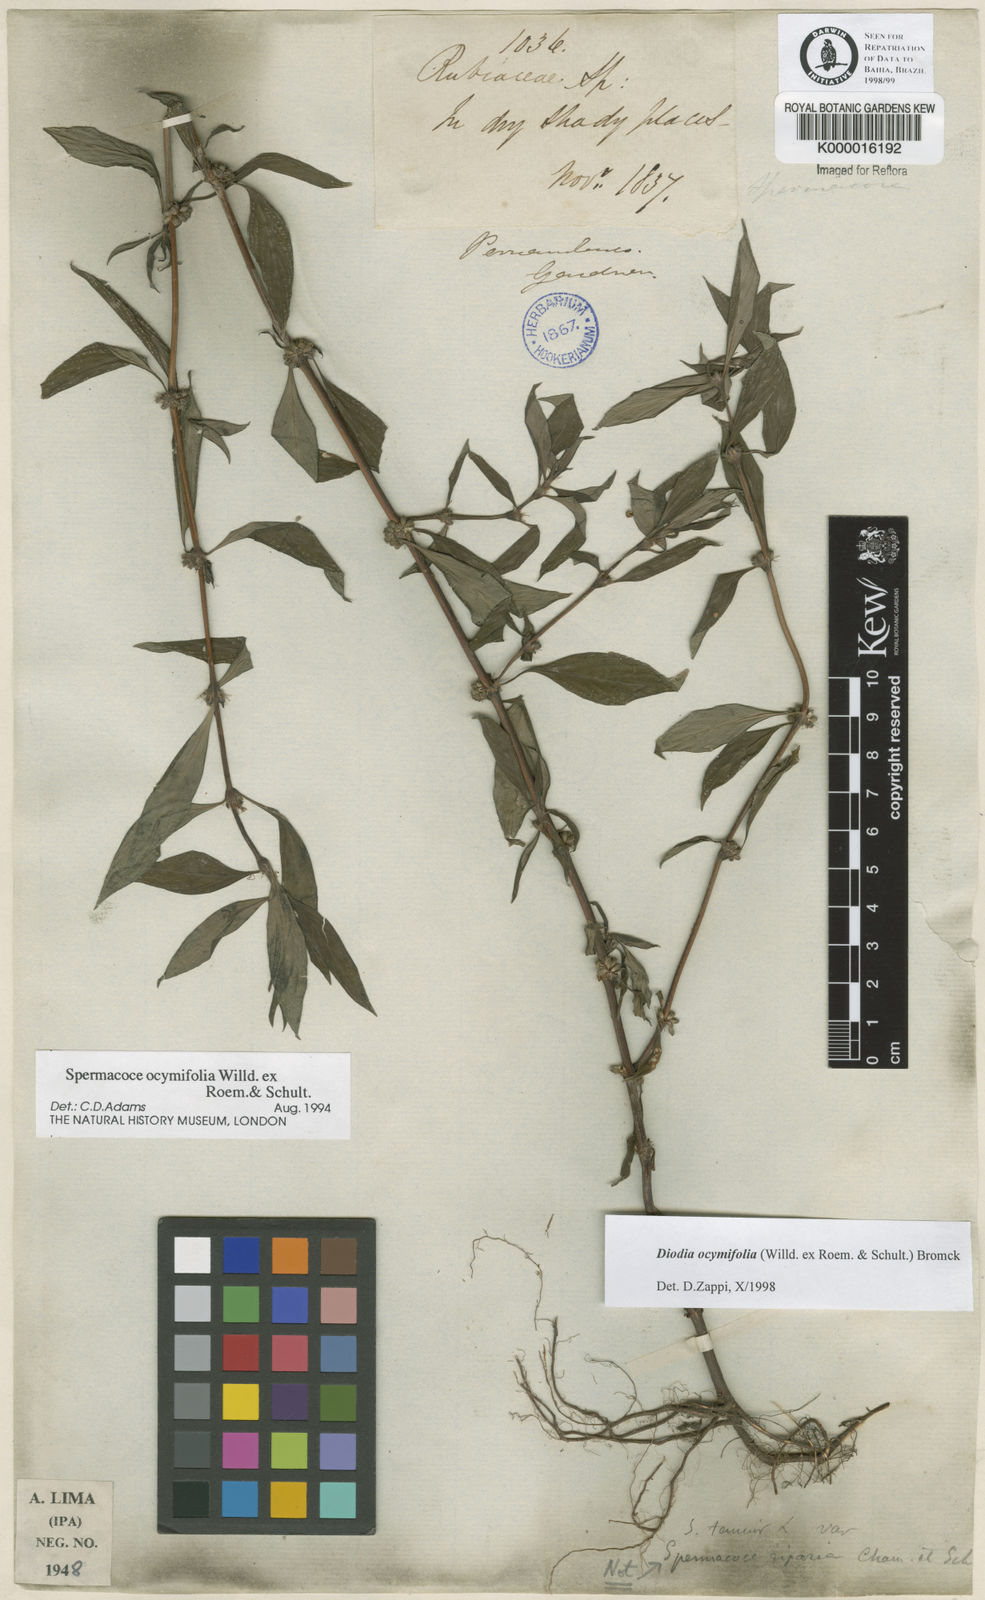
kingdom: Plantae
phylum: Tracheophyta
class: Magnoliopsida
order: Gentianales
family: Rubiaceae
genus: Spermacoce
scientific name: Spermacoce ocymifolia
